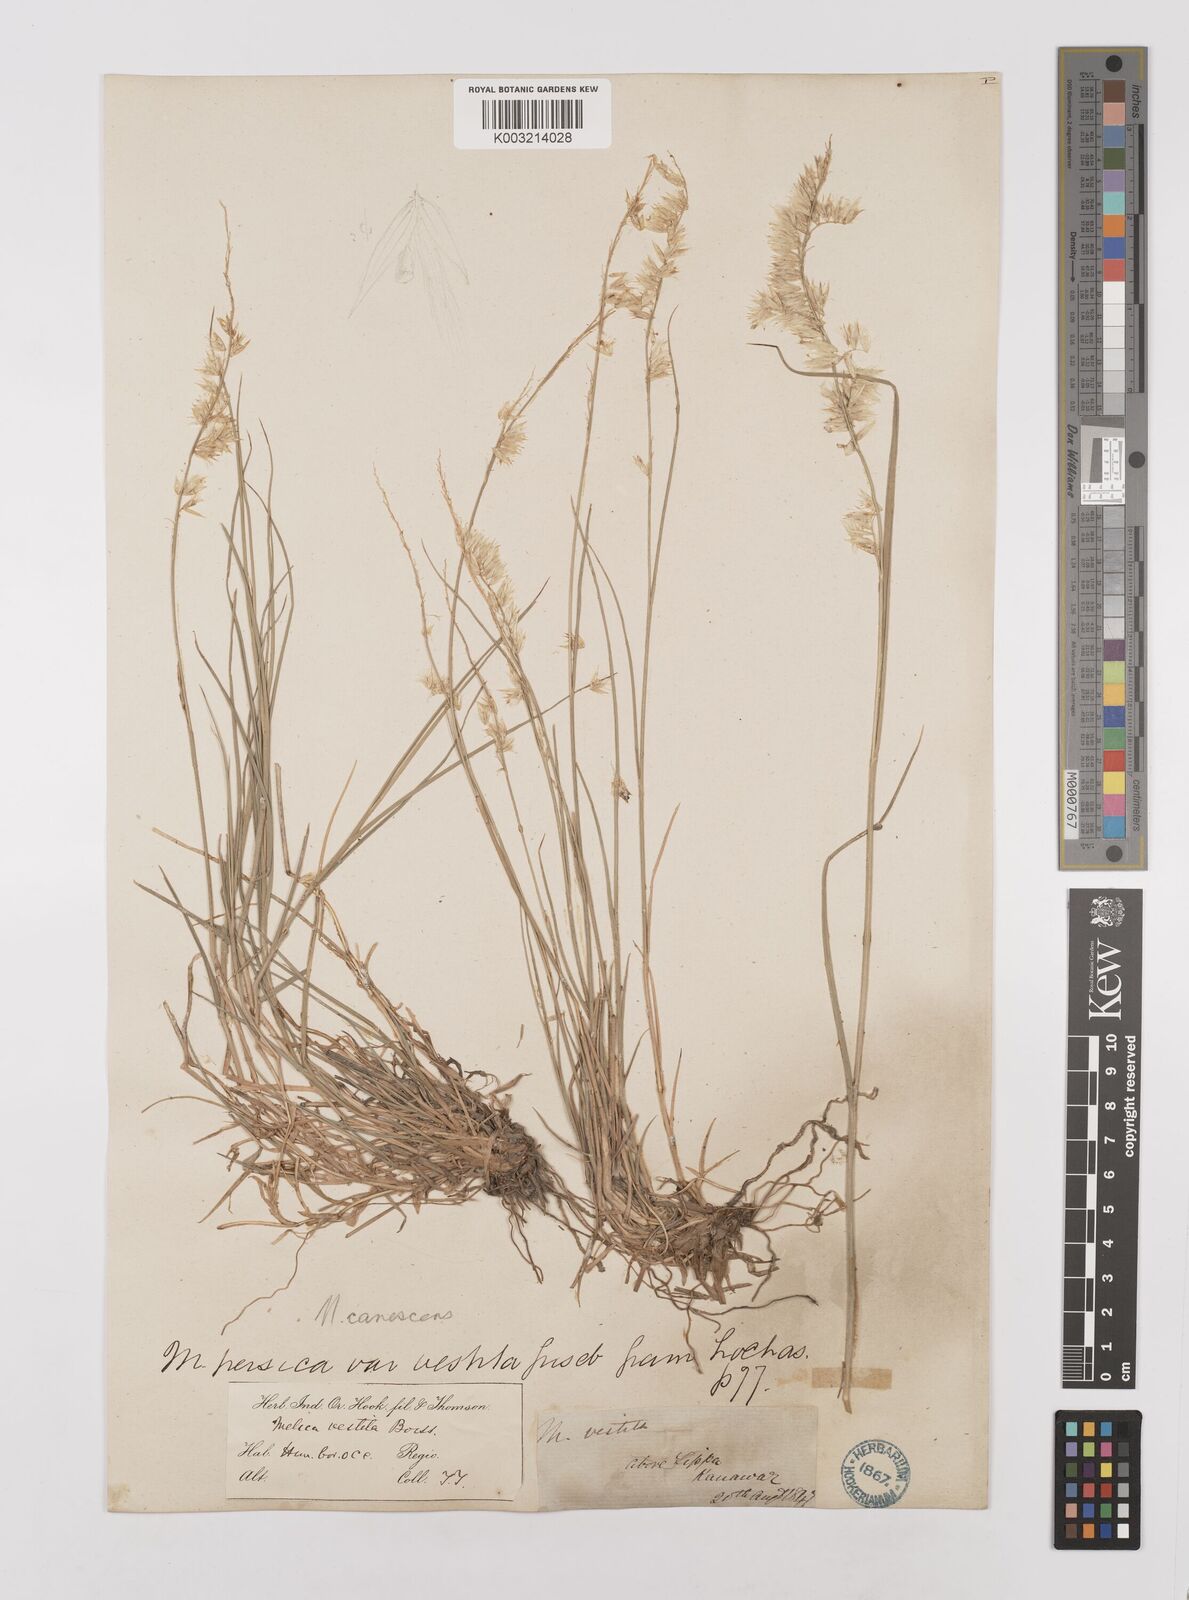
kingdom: Plantae
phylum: Tracheophyta
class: Liliopsida
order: Poales
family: Poaceae
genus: Melica
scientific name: Melica persica
